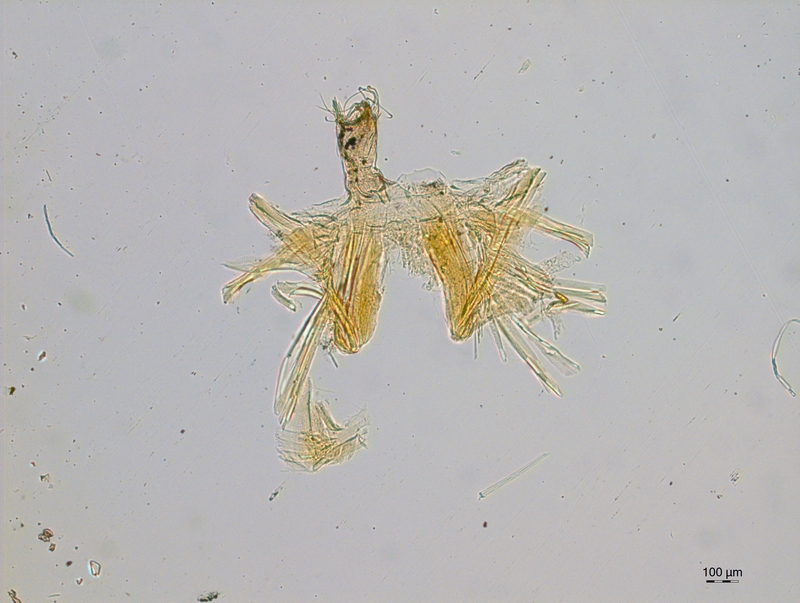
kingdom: Animalia
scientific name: Animalia
